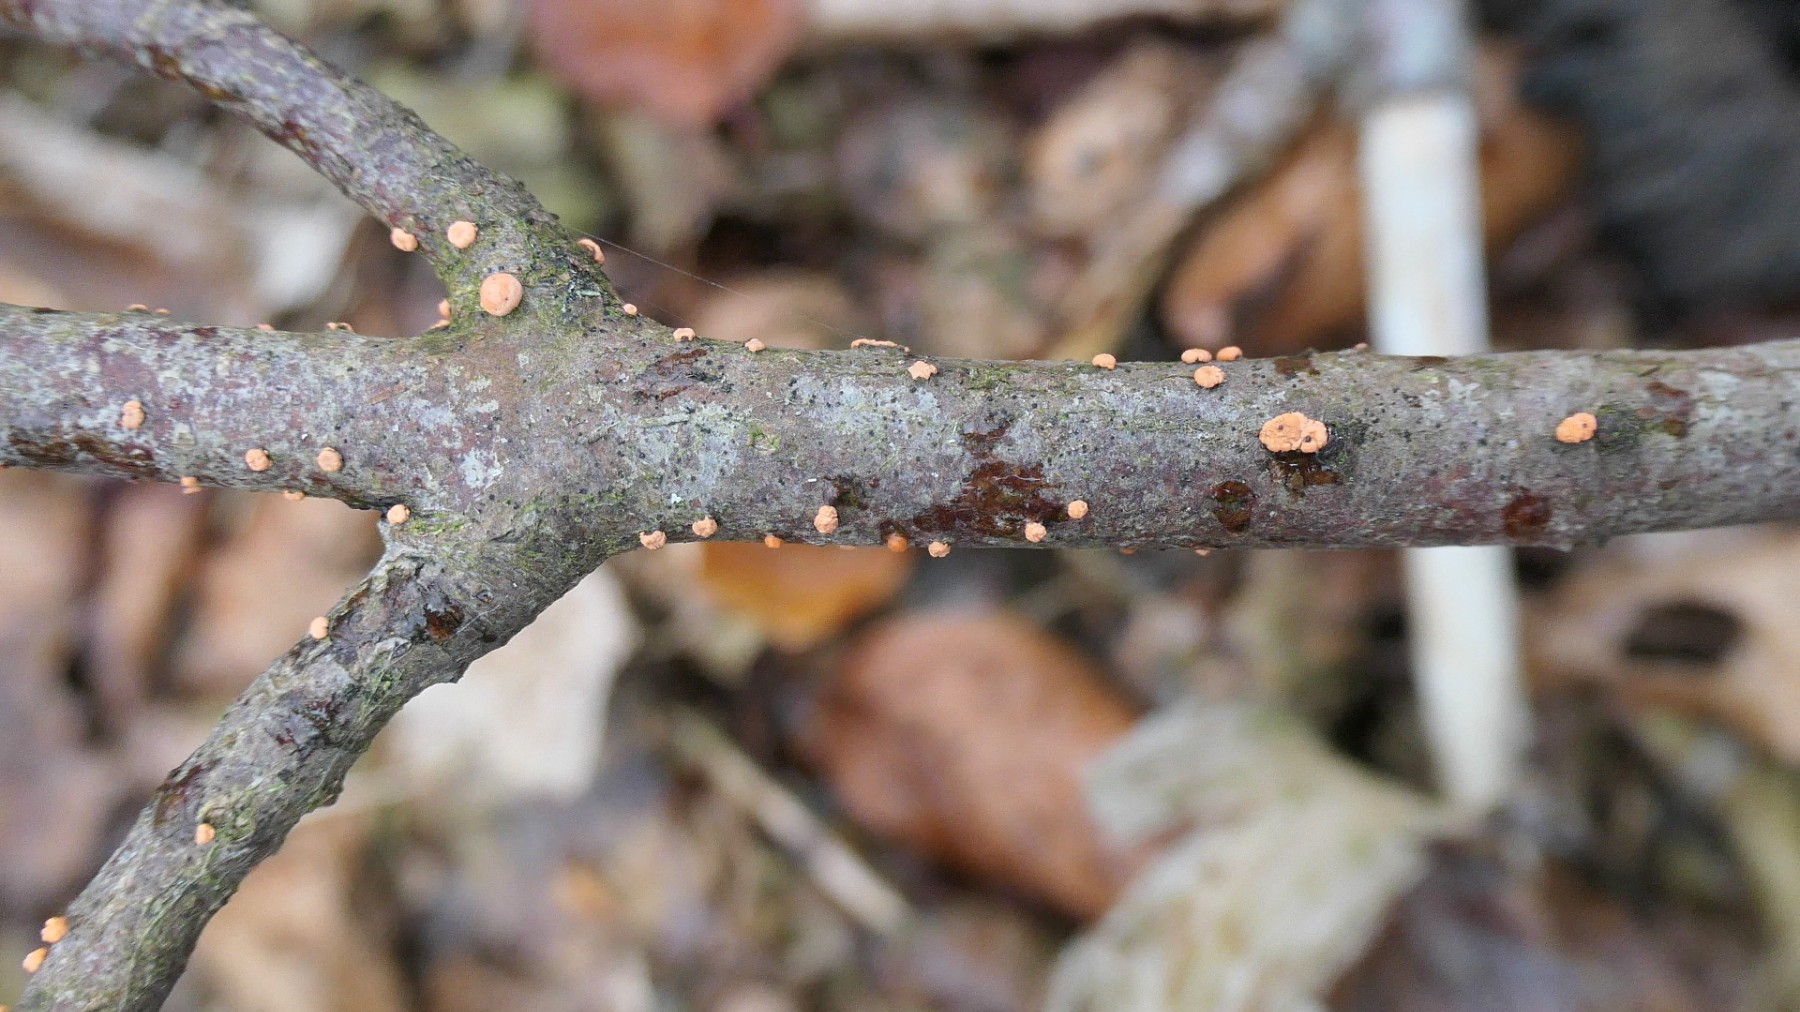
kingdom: Fungi
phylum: Ascomycota
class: Sordariomycetes
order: Hypocreales
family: Nectriaceae
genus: Nectria
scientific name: Nectria cinnabarina
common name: almindelig cinnobersvamp
